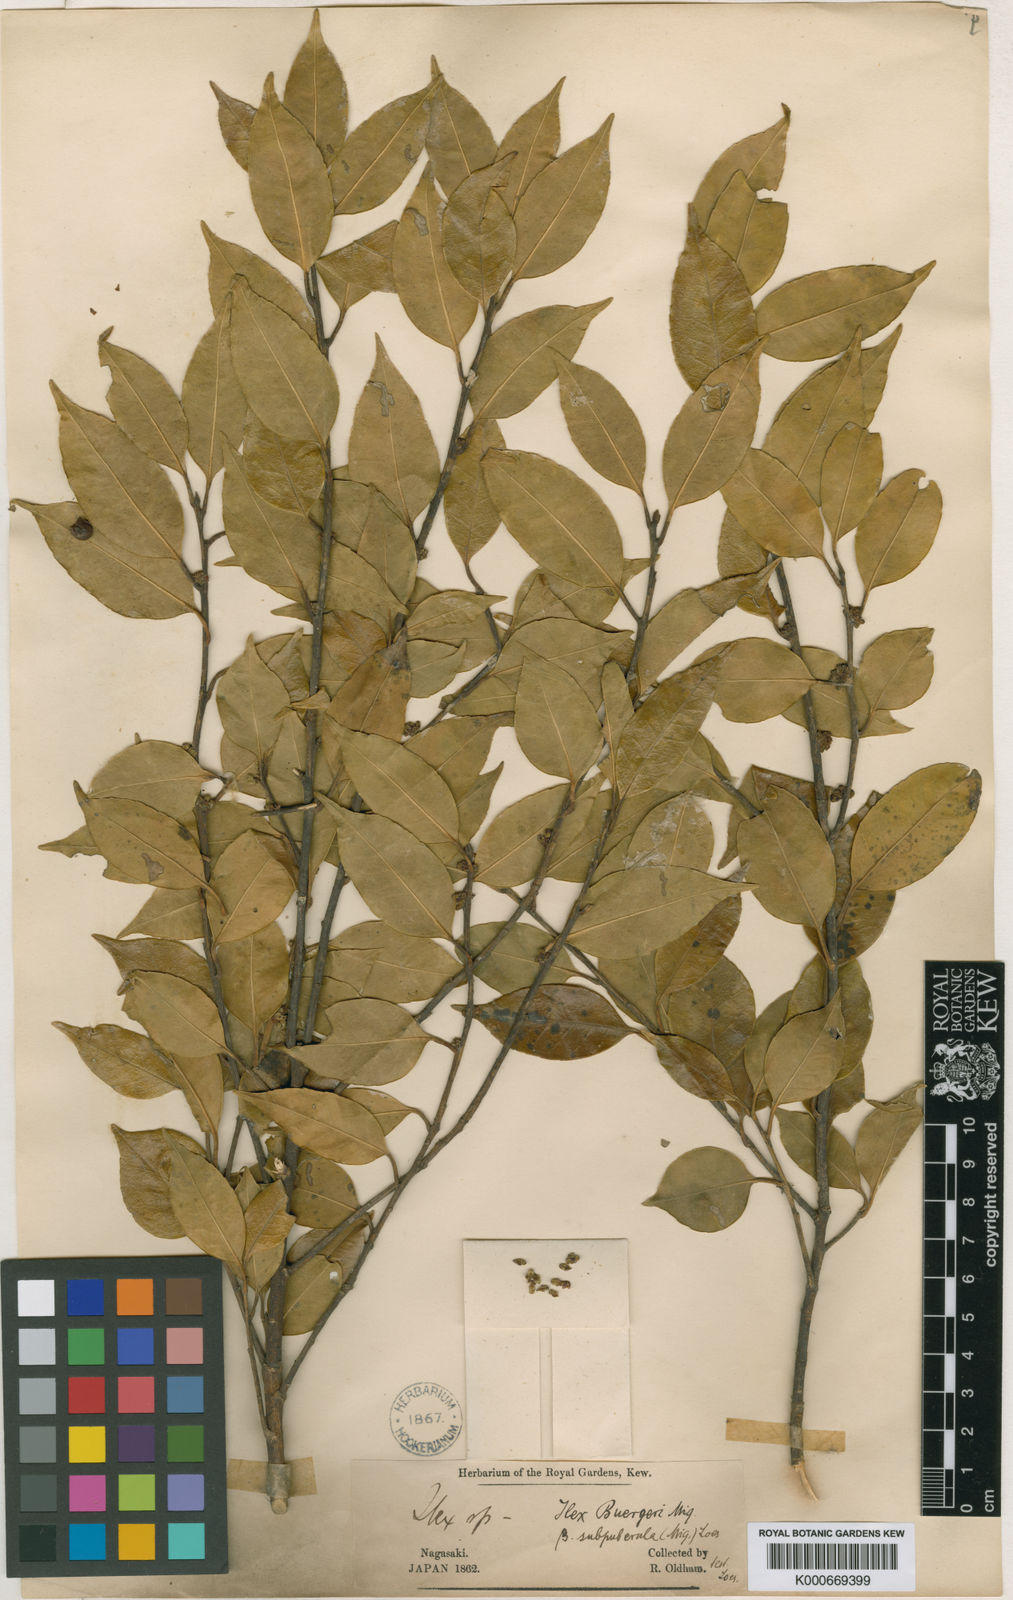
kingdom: Plantae
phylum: Tracheophyta
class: Magnoliopsida
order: Aquifoliales
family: Aquifoliaceae
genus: Ilex
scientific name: Ilex buergeri
